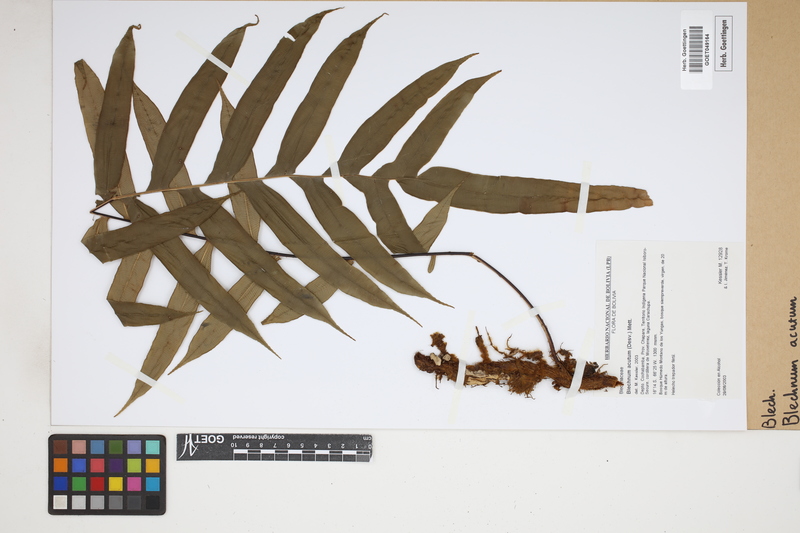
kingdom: Plantae
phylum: Tracheophyta
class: Polypodiopsida
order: Polypodiales
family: Blechnaceae
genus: Lomaridium
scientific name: Lomaridium acutum
